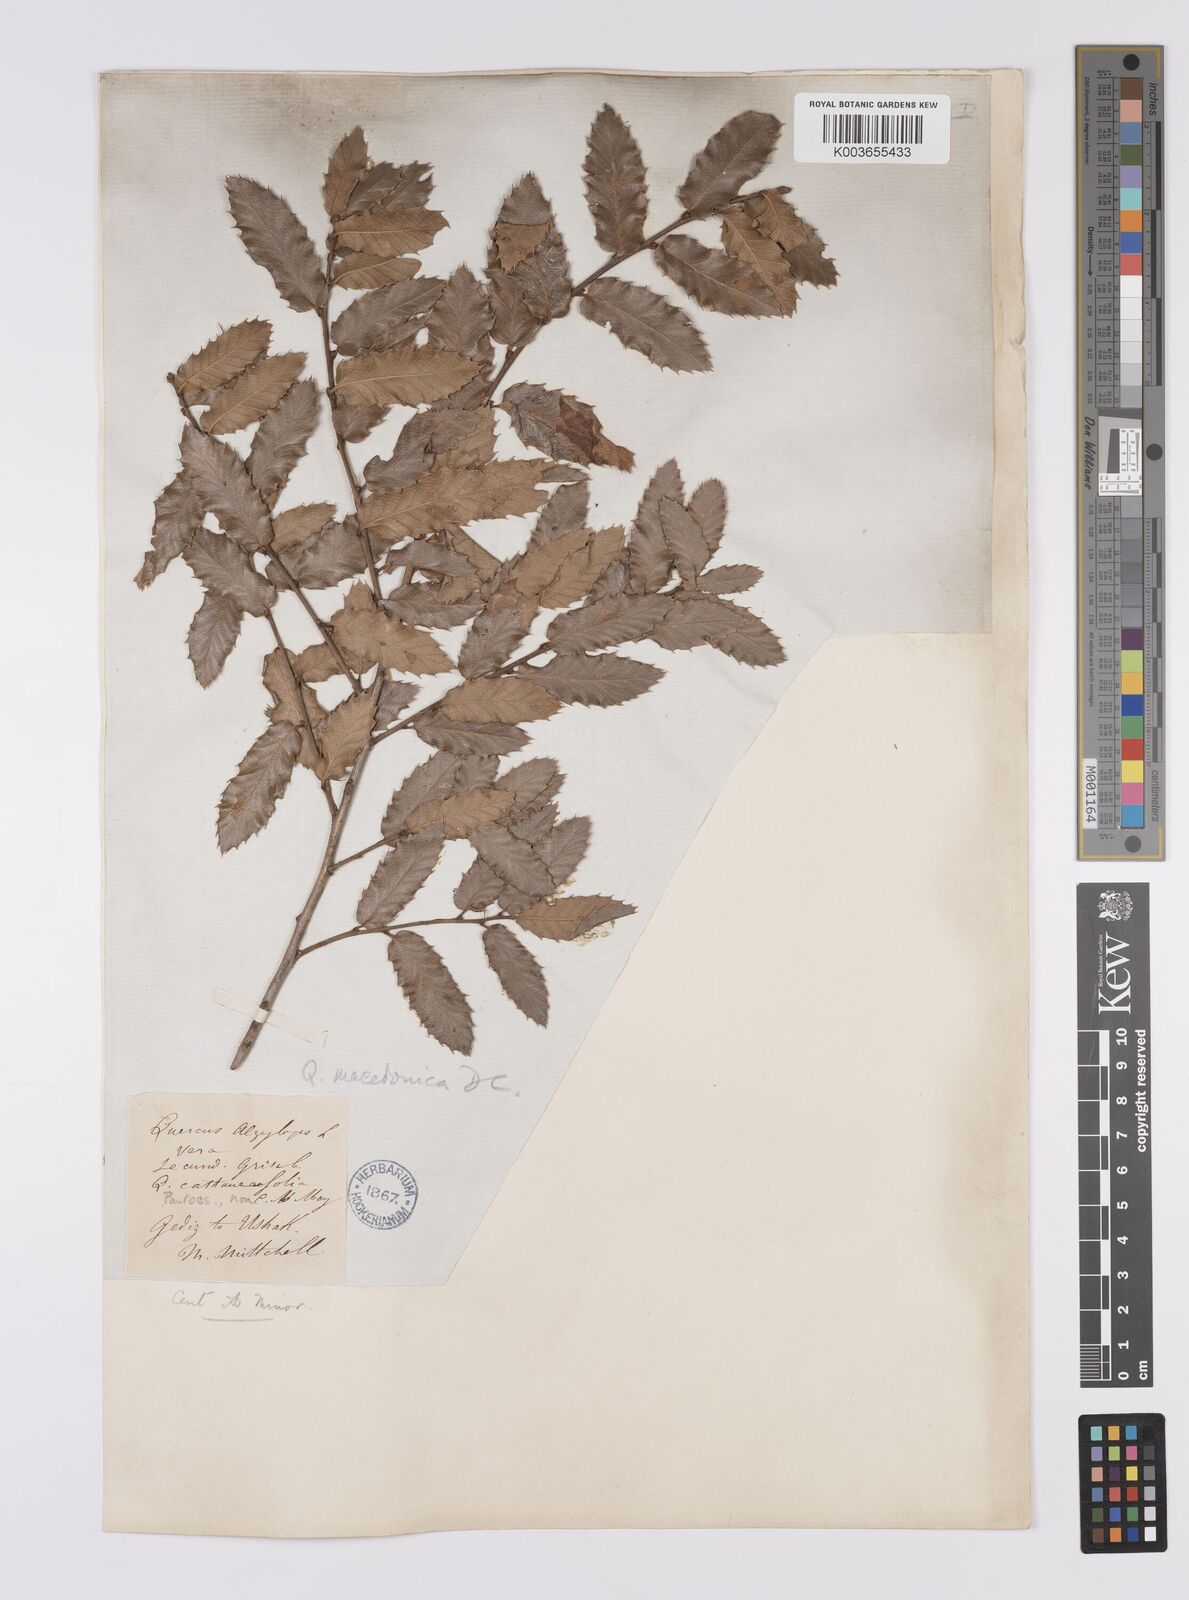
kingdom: Plantae
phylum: Tracheophyta
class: Magnoliopsida
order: Fagales
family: Fagaceae
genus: Quercus
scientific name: Quercus trojana
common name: Macedonian oak
